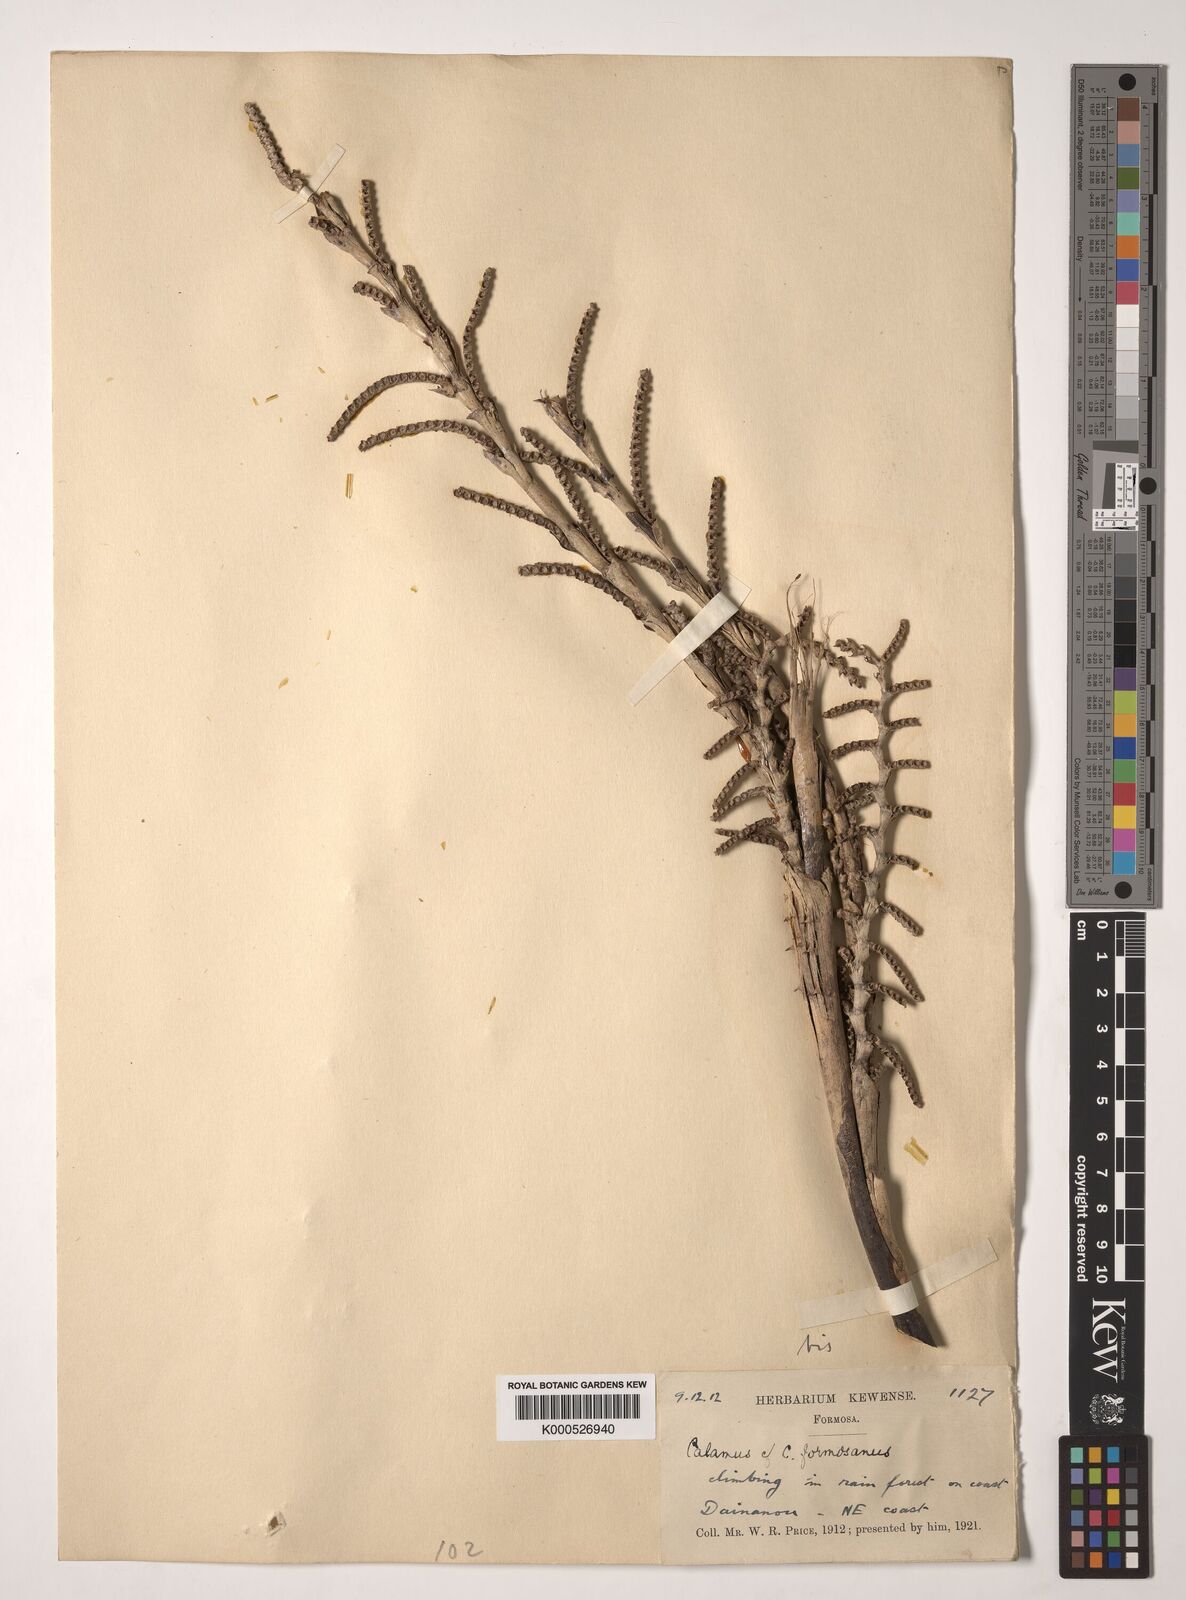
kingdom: Plantae
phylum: Tracheophyta
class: Liliopsida
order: Arecales
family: Arecaceae
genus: Calamus
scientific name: Calamus formosanus
